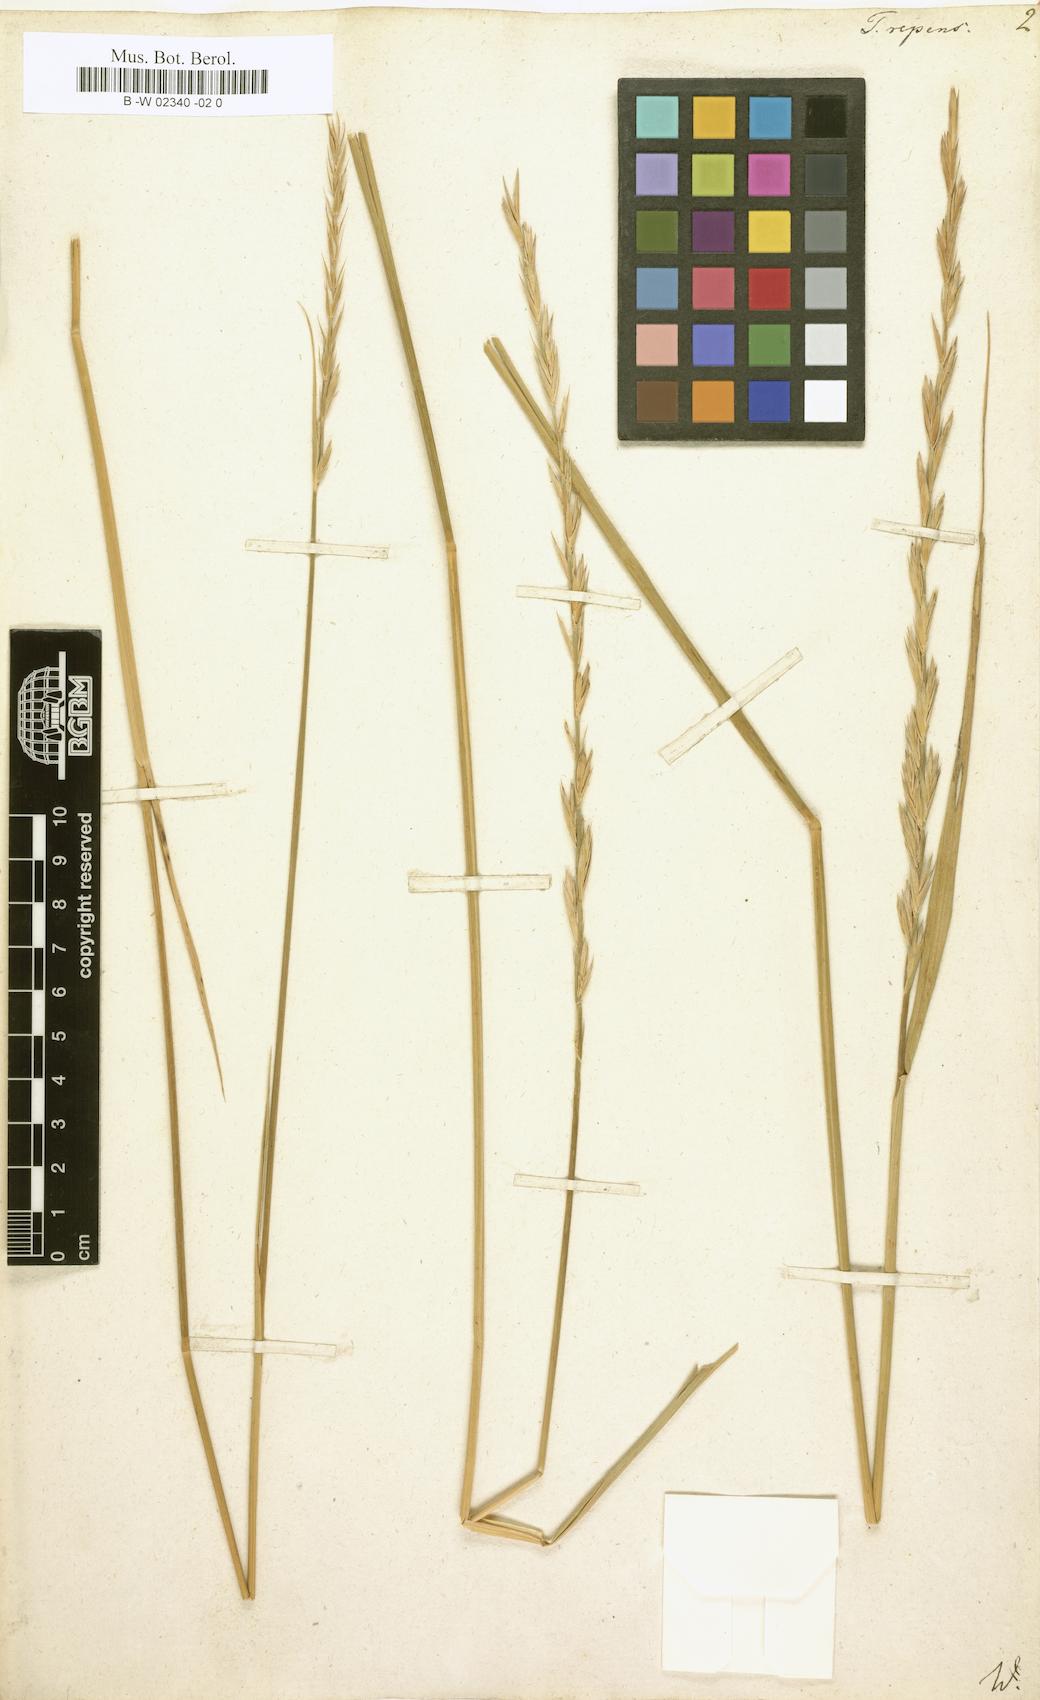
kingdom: Plantae
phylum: Tracheophyta
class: Liliopsida
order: Poales
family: Poaceae
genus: Elymus
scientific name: Elymus repens
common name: Quackgrass
